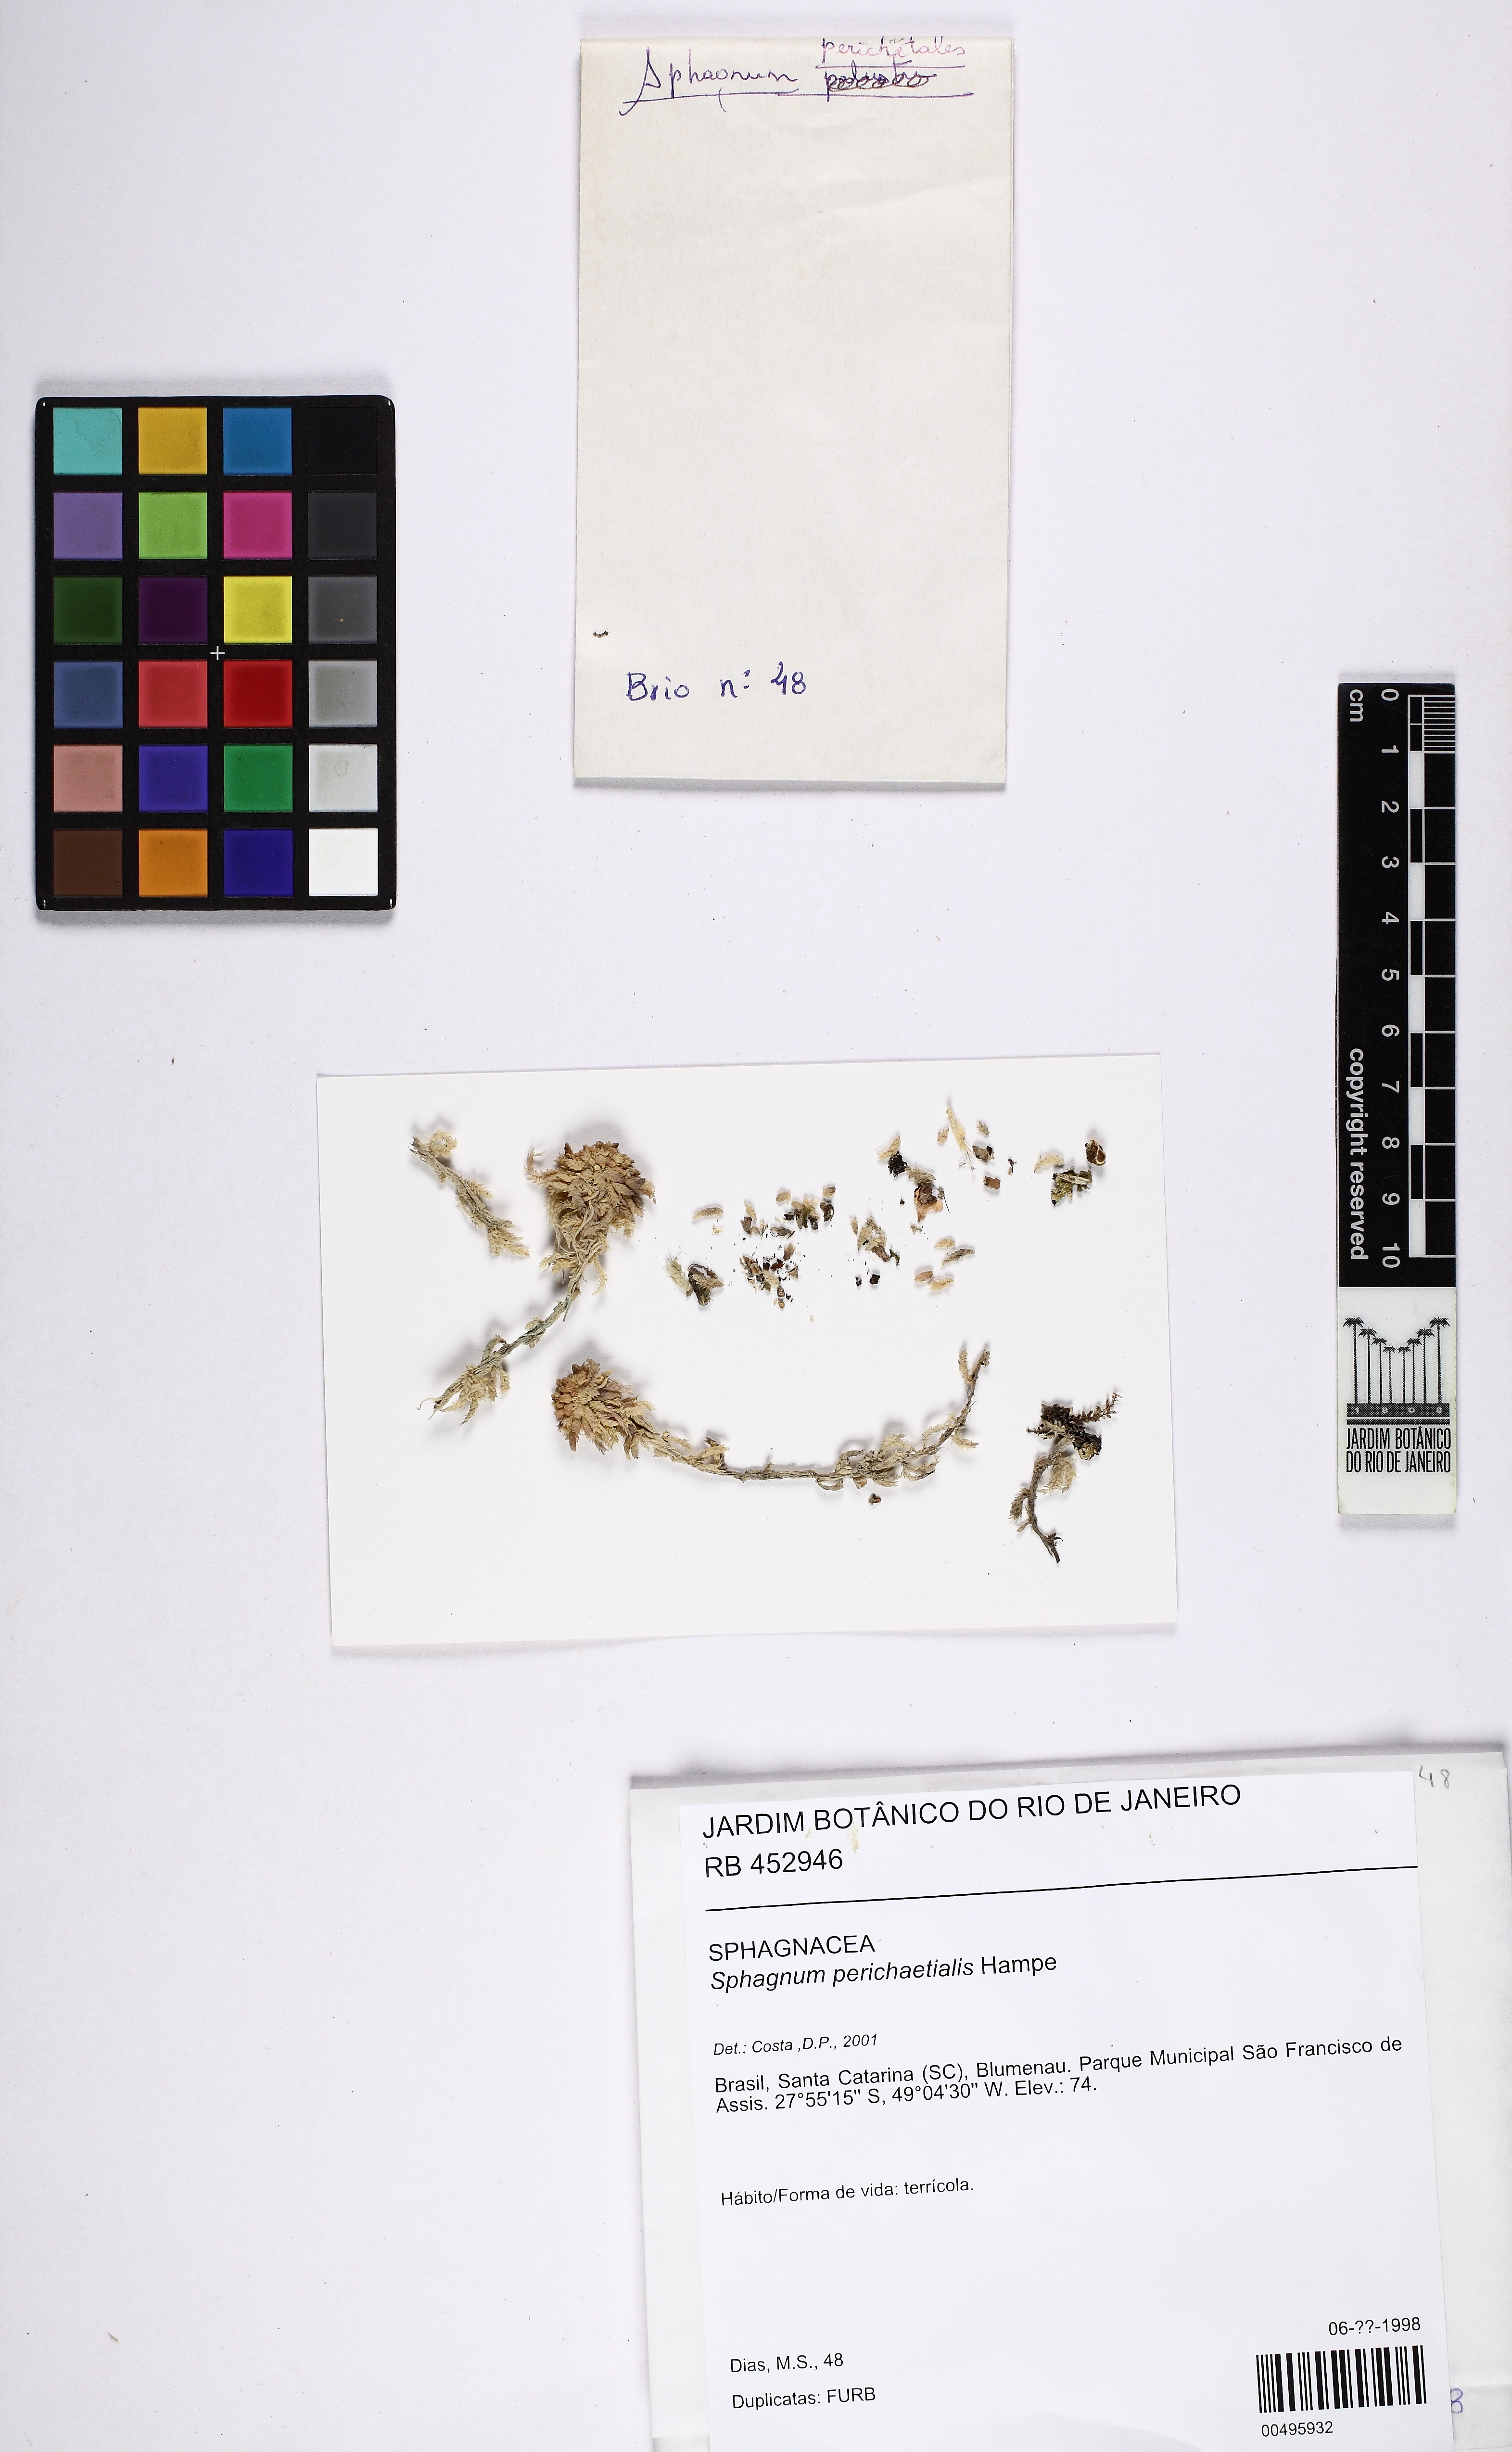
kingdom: Plantae
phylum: Bryophyta
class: Sphagnopsida
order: Sphagnales
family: Sphagnaceae
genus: Sphagnum
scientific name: Sphagnum perichaetiale
